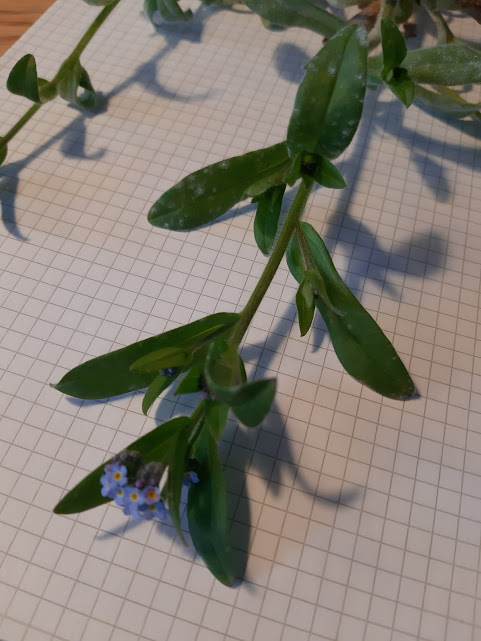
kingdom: Fungi
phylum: Ascomycota
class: Leotiomycetes
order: Helotiales
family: Erysiphaceae
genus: Golovinomyces
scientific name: Golovinomyces asperifolii
